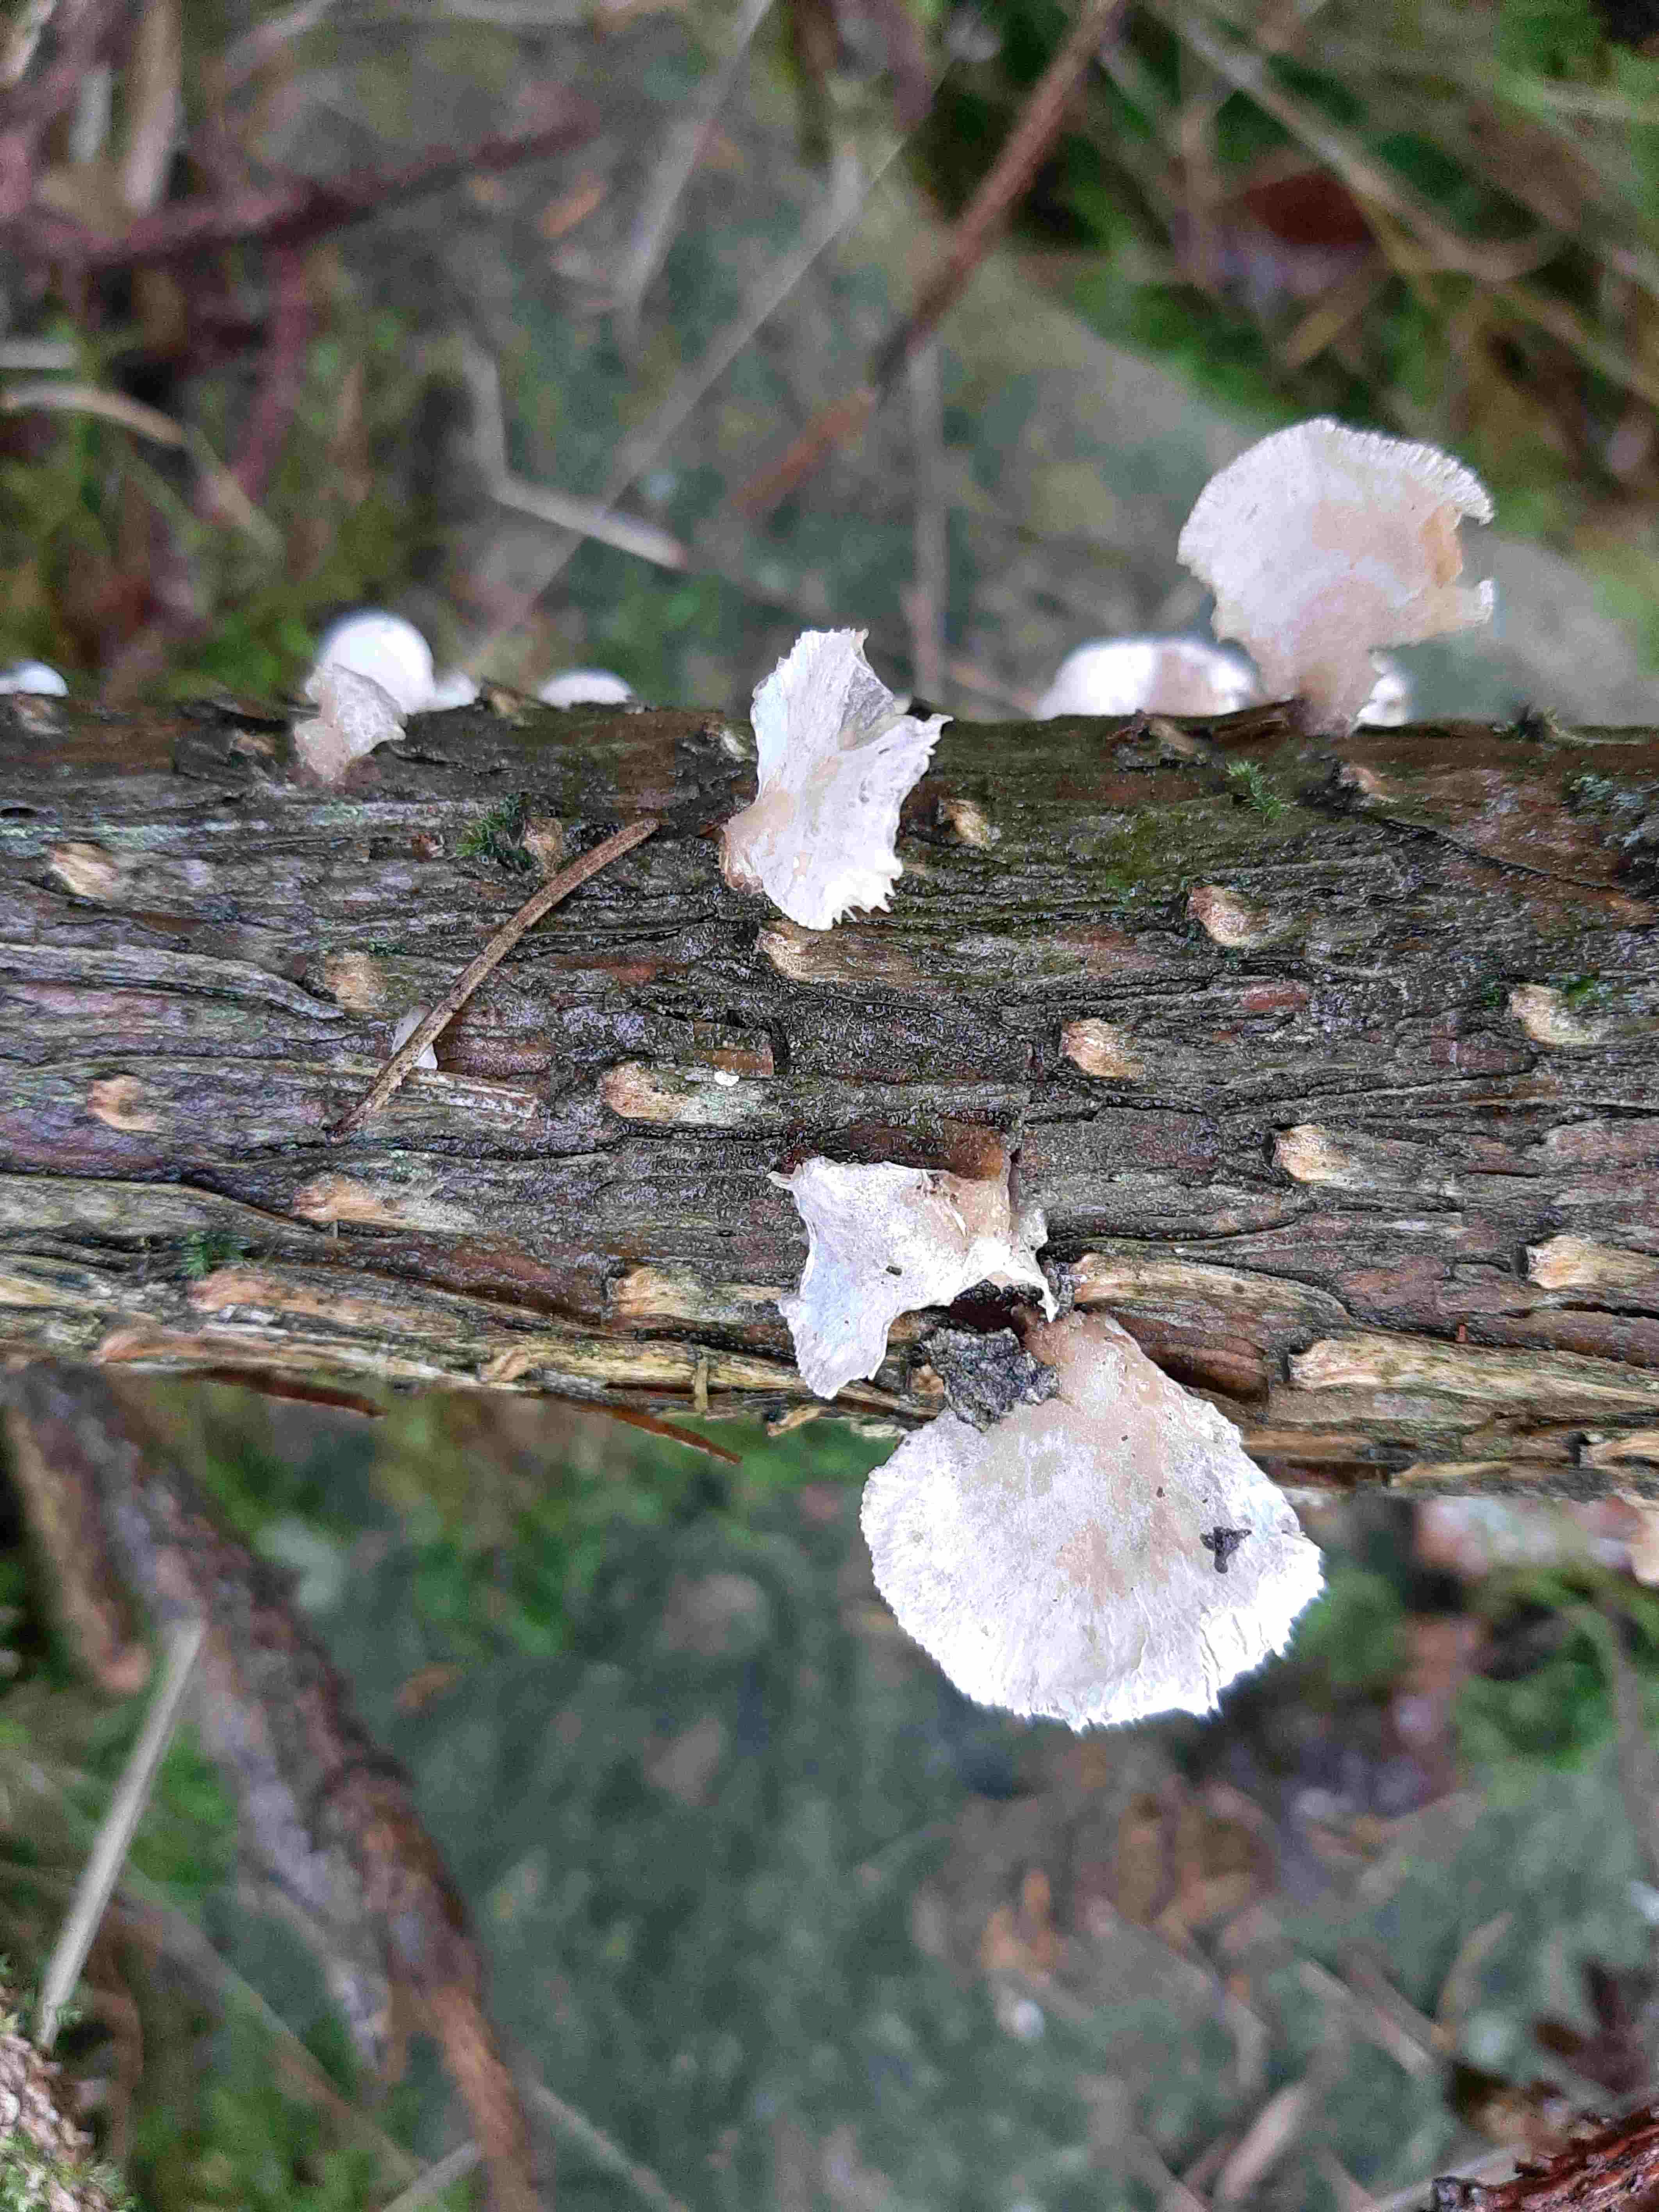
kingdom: Fungi
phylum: Basidiomycota
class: Agaricomycetes
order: Agaricales
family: Mycenaceae
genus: Panellus
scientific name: Panellus mitis
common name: mild epaulethat
